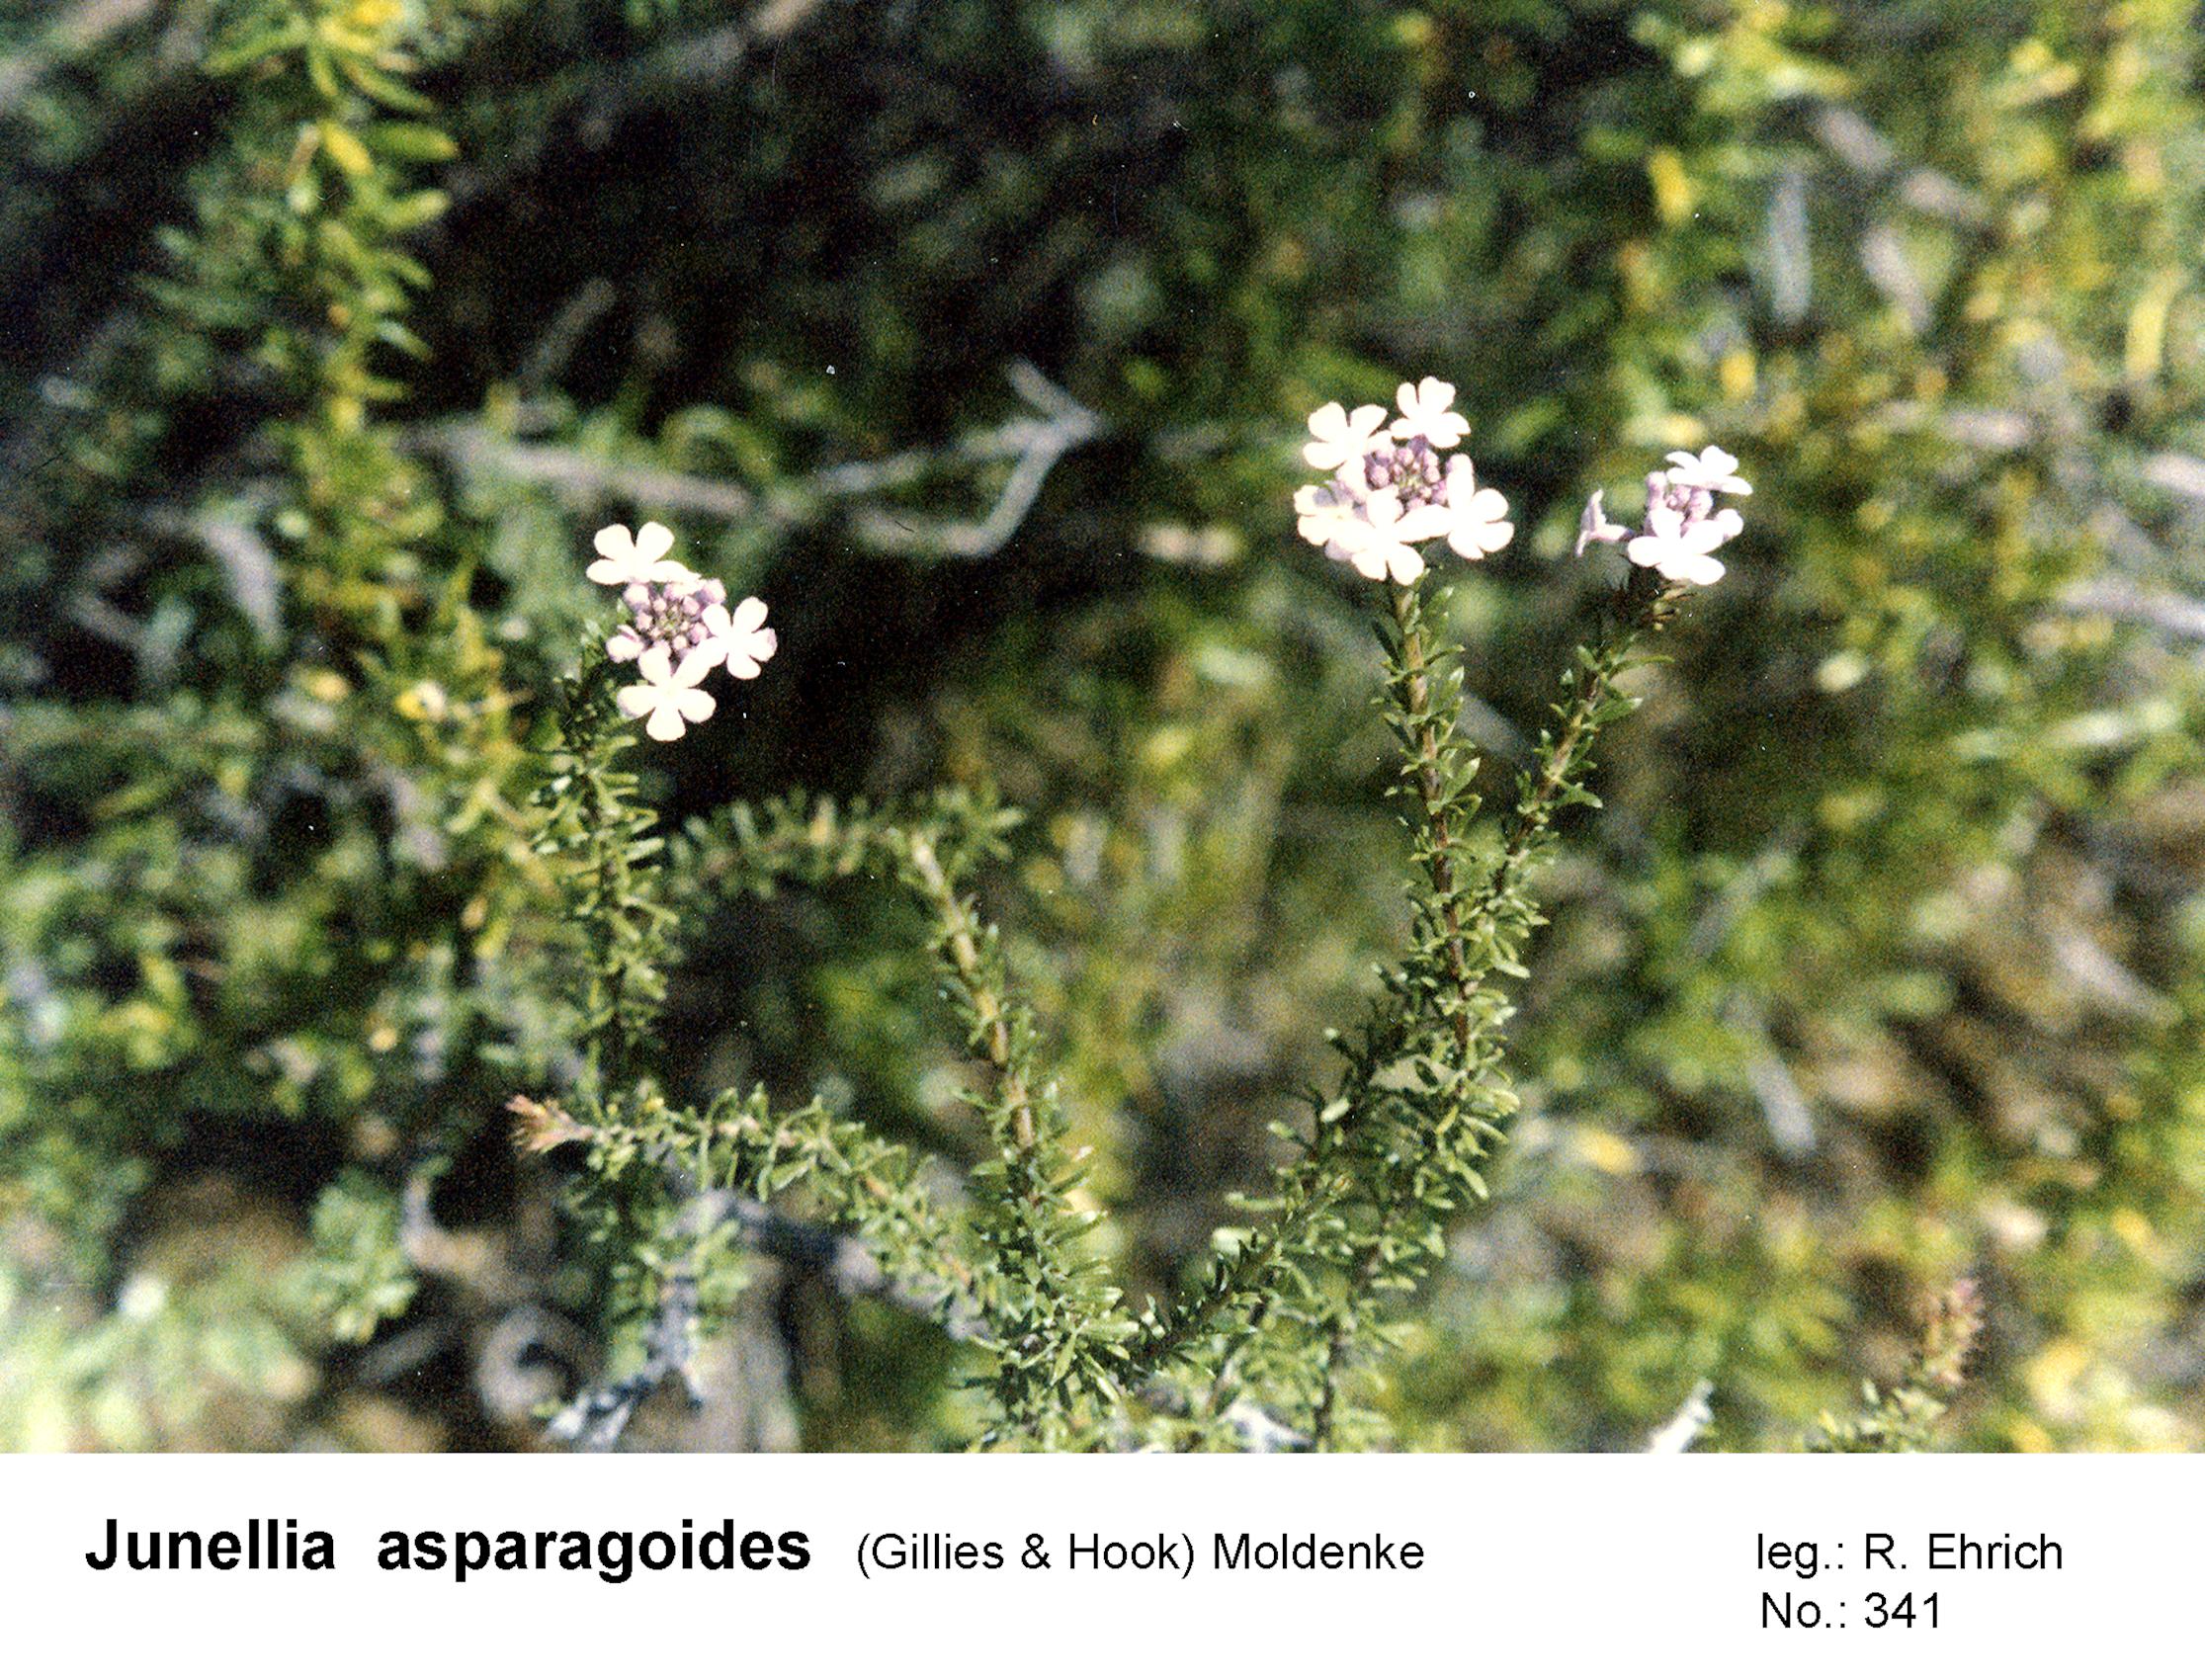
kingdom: Plantae
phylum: Tracheophyta
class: Magnoliopsida
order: Lamiales
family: Verbenaceae
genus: Mulguraea
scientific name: Mulguraea asparagoides
